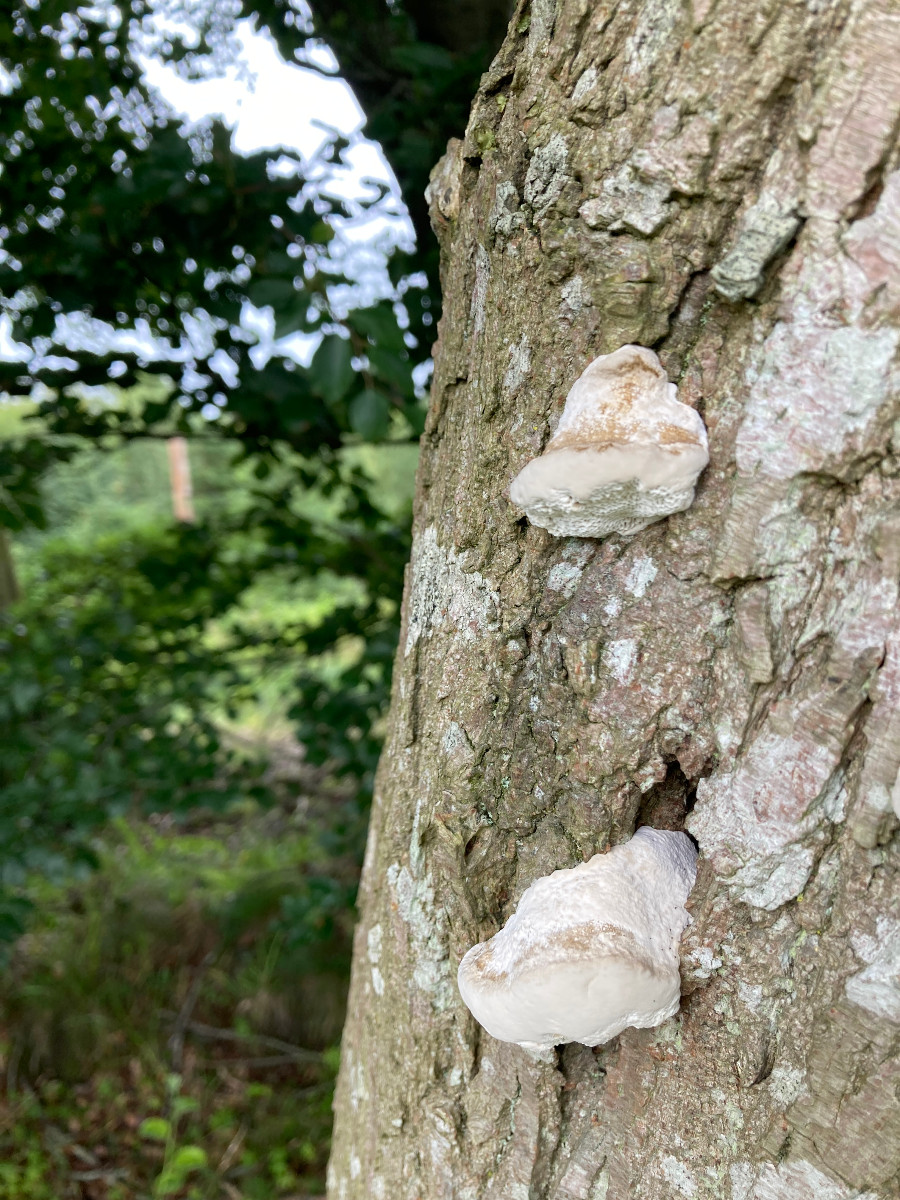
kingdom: Fungi
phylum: Basidiomycota
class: Agaricomycetes
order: Polyporales
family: Polyporaceae
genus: Daedaleopsis
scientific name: Daedaleopsis confragosa
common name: rødmende læderporesvamp
